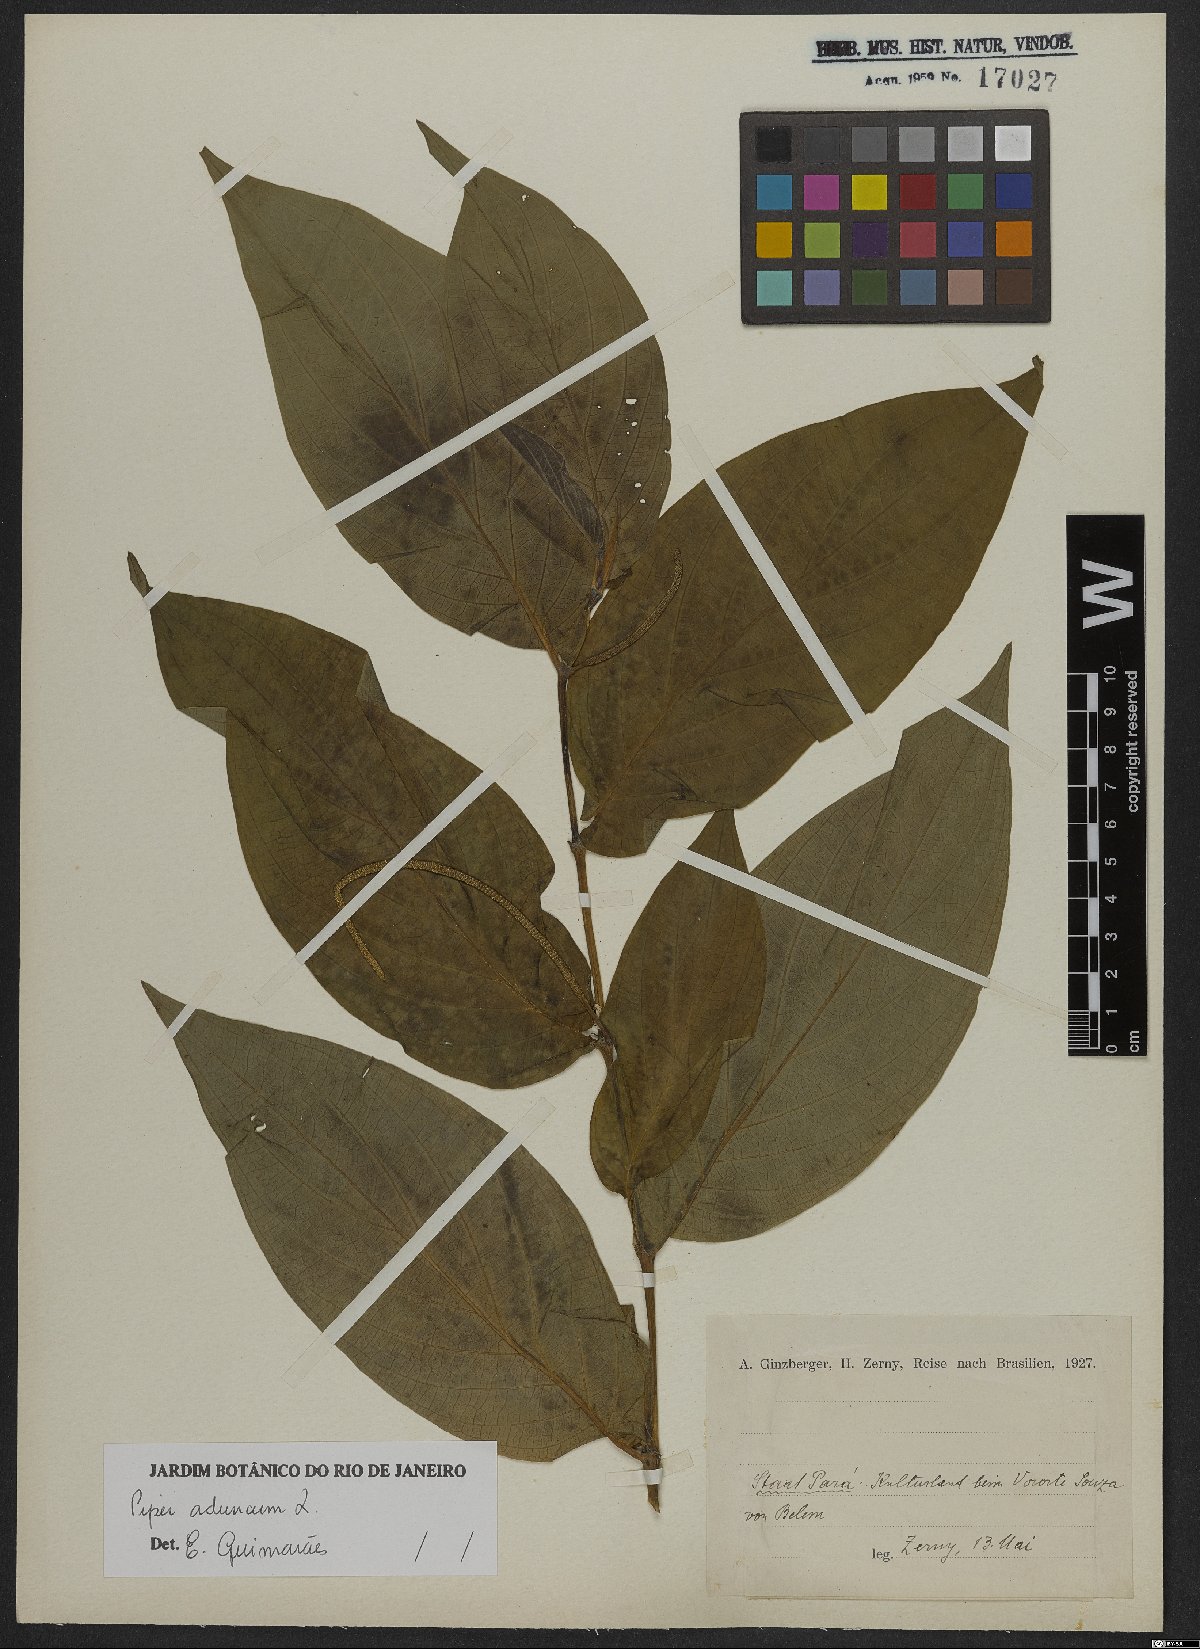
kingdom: Plantae
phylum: Tracheophyta
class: Magnoliopsida
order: Piperales
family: Piperaceae
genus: Piper
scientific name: Piper aduncum
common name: Spiked pepper
